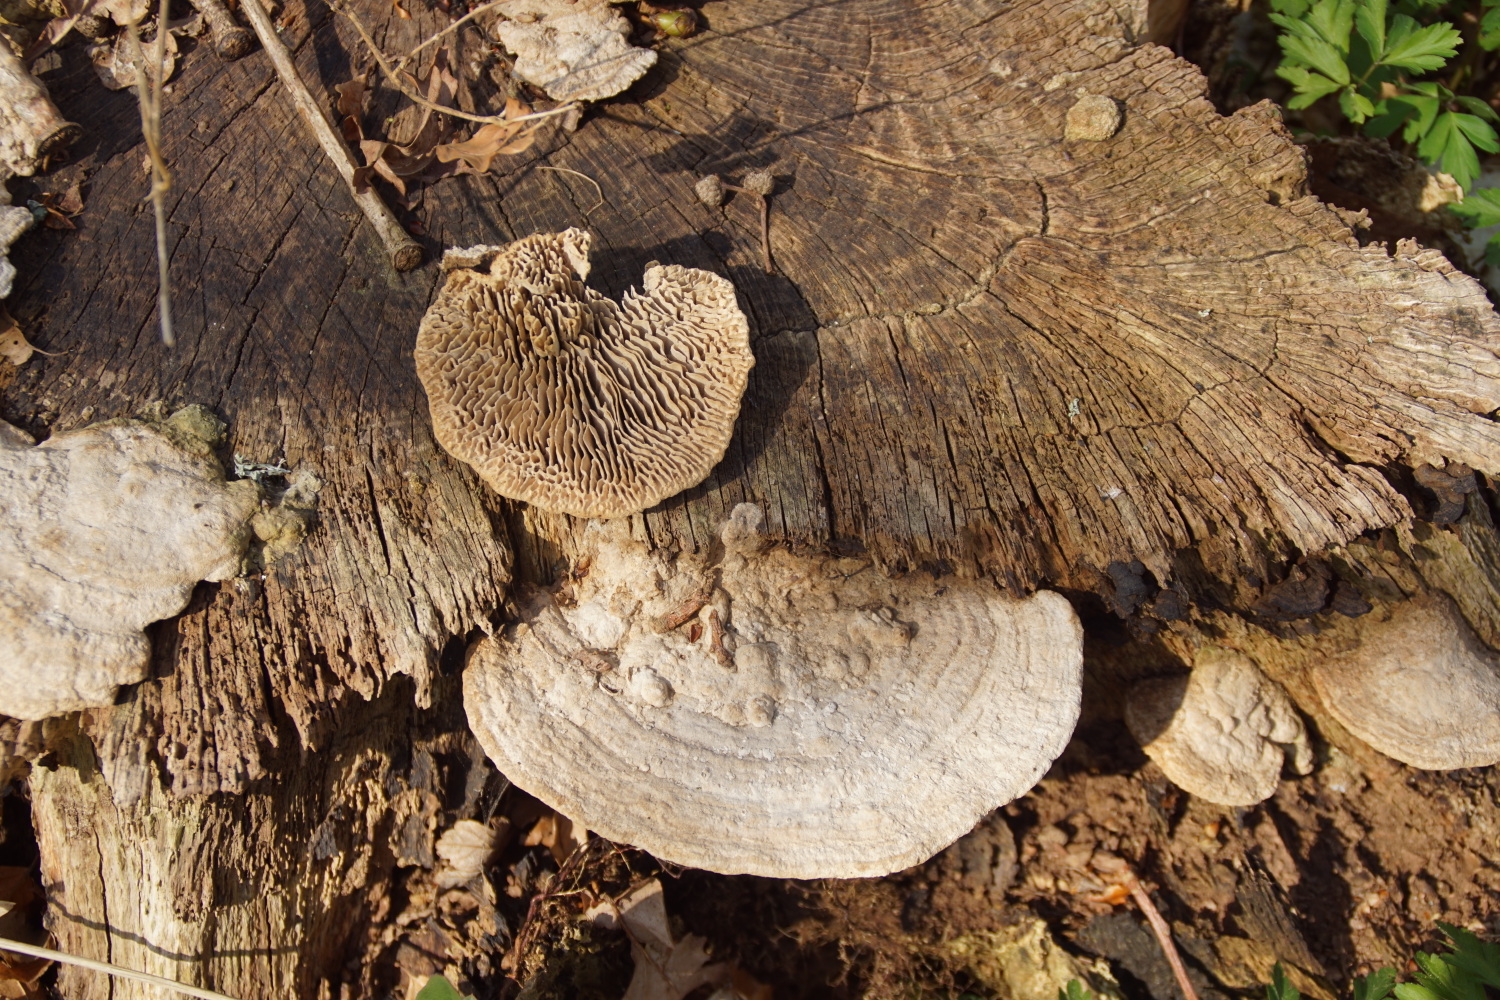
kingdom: Fungi
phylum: Basidiomycota
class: Agaricomycetes
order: Polyporales
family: Fomitopsidaceae
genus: Daedalea
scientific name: Daedalea quercina
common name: ege-labyrintsvamp
